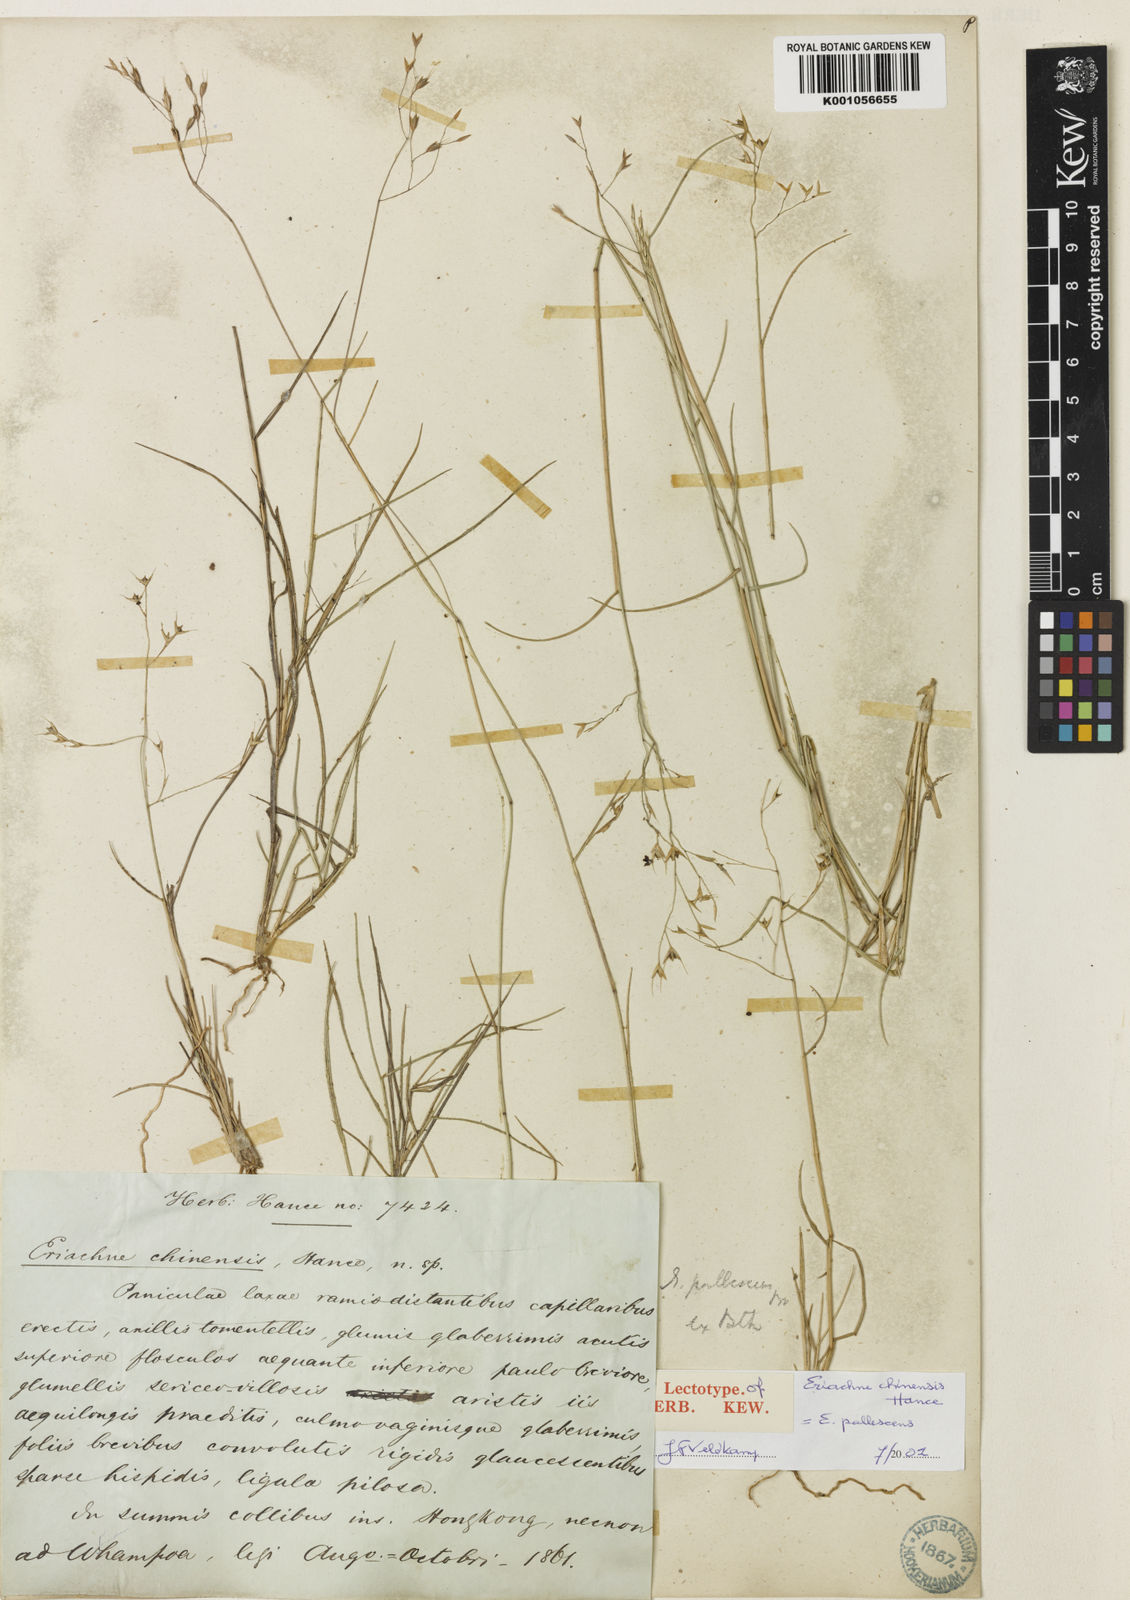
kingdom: Plantae
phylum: Tracheophyta
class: Liliopsida
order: Poales
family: Poaceae
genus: Eriachne
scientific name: Eriachne pallescens
